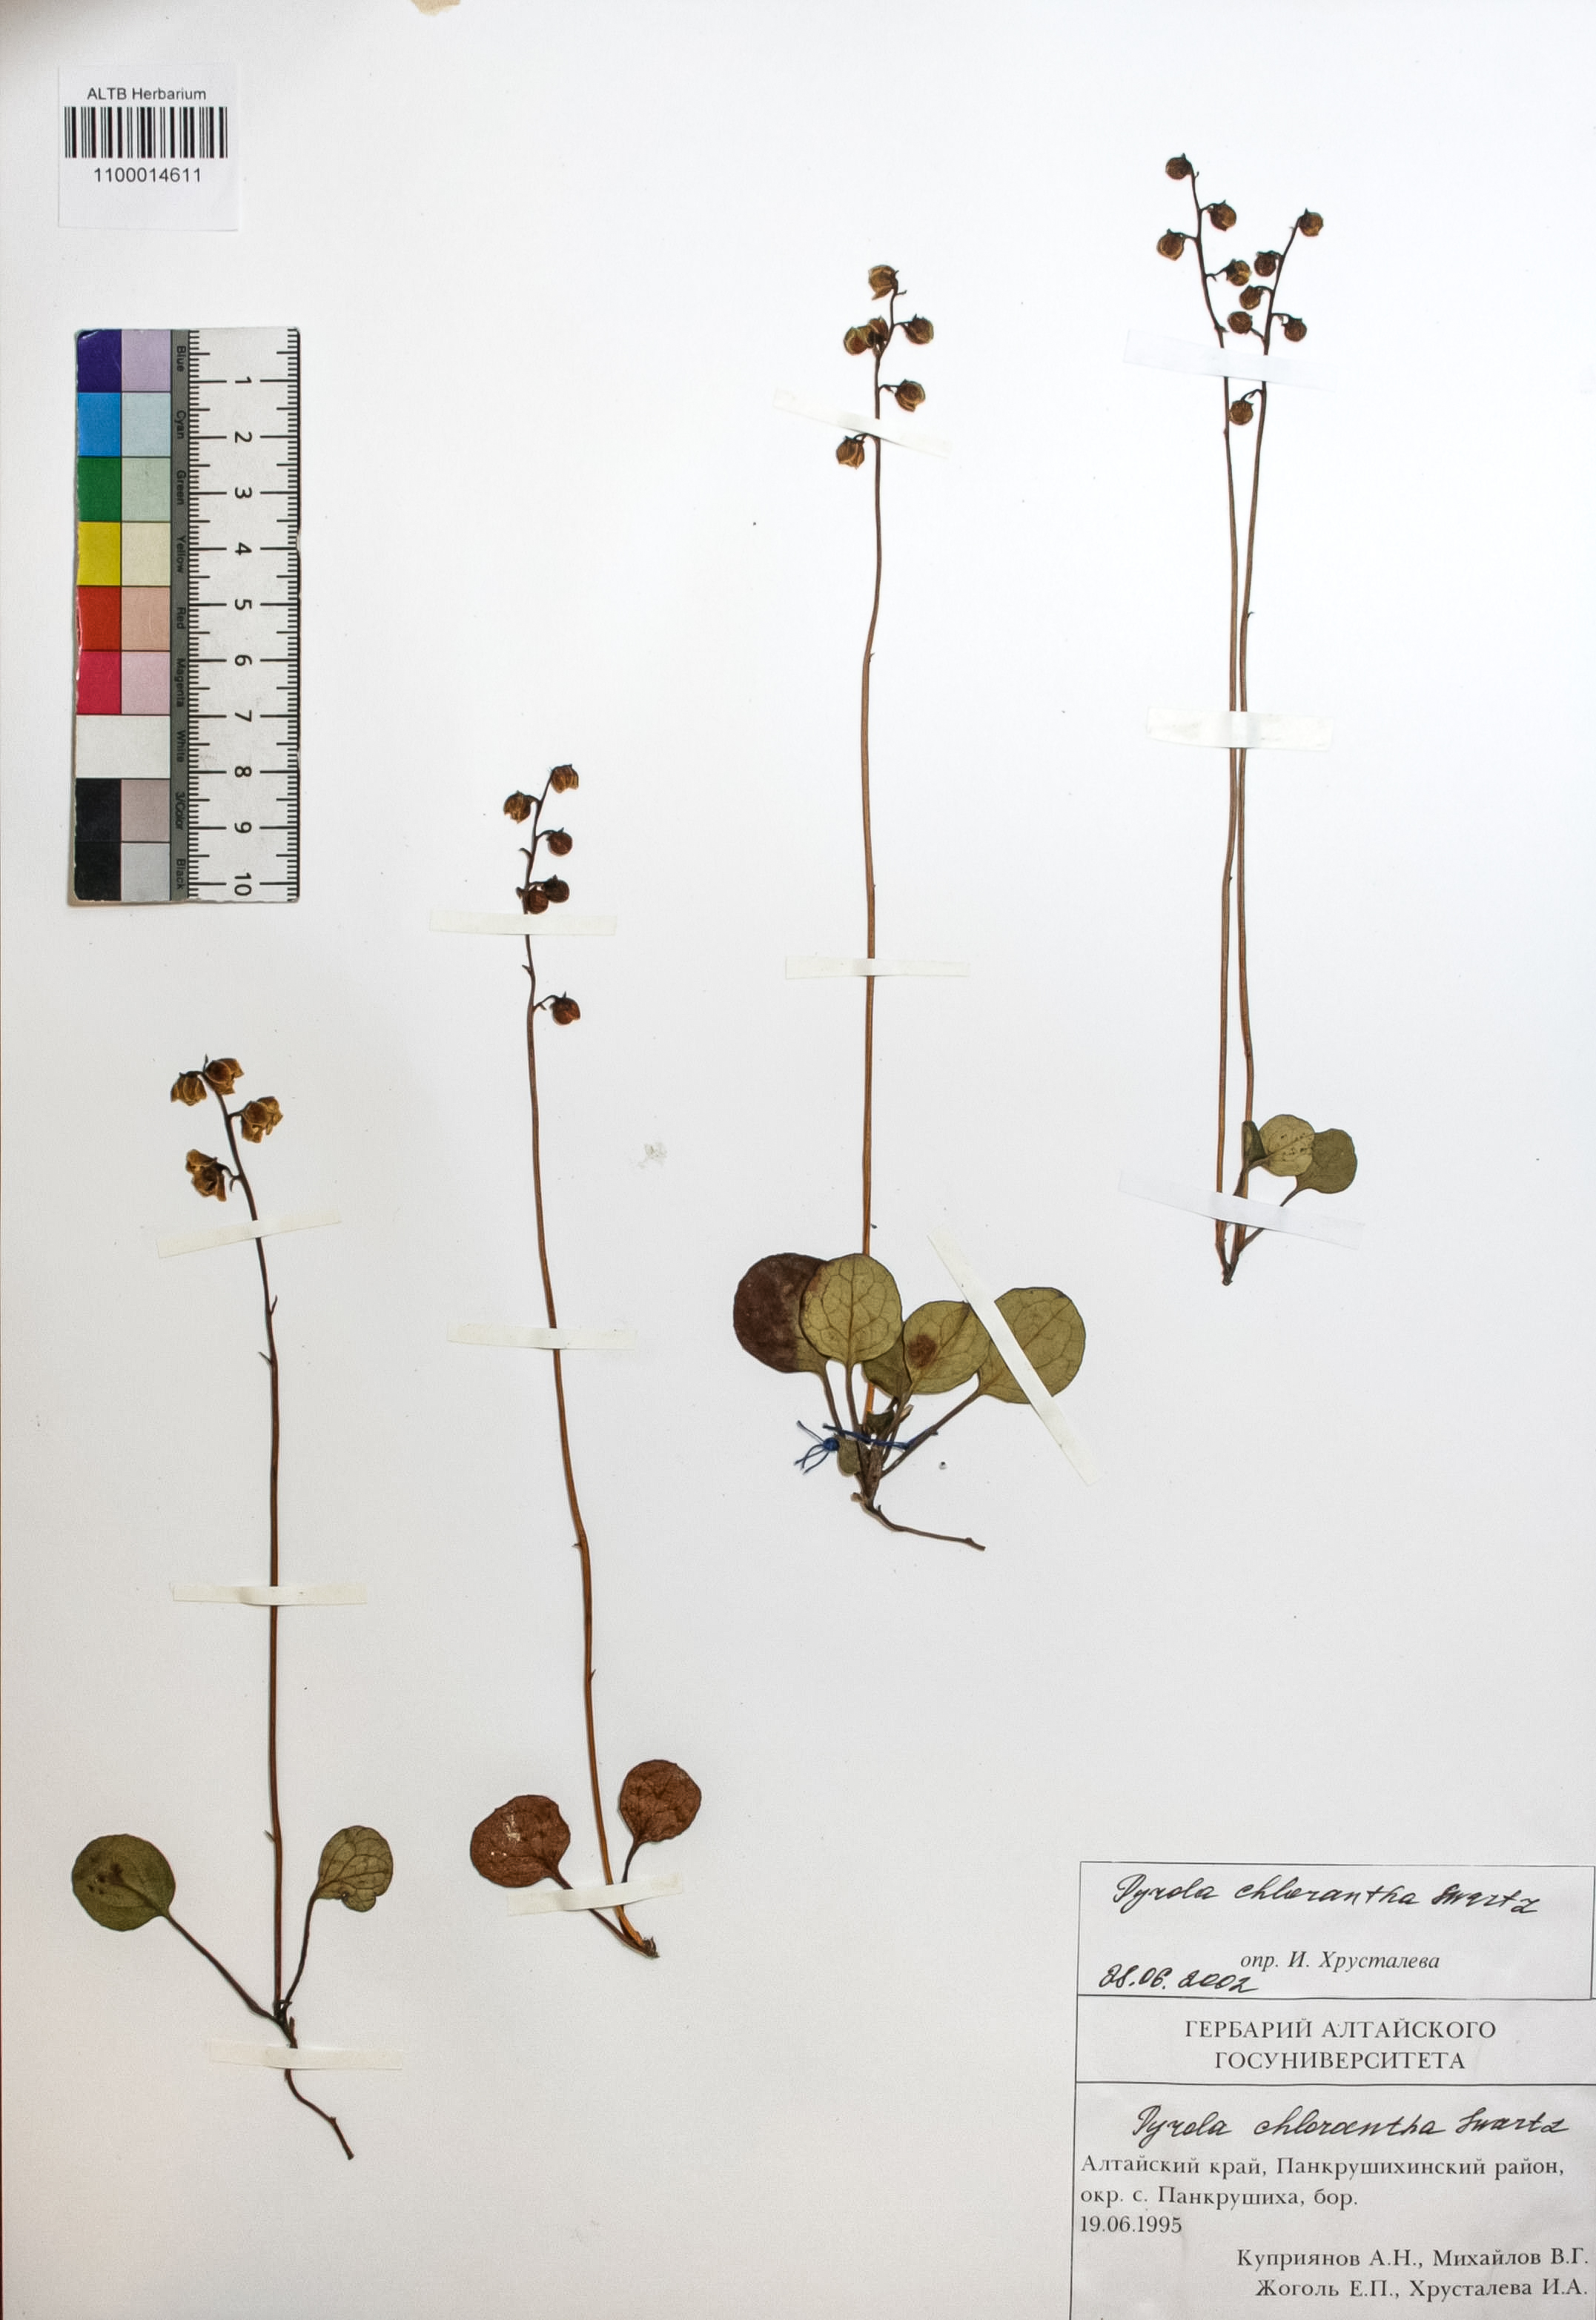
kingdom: Plantae
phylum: Tracheophyta
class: Magnoliopsida
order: Ericales
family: Ericaceae
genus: Pyrola
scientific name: Pyrola chlorantha
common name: Green wintergreen
